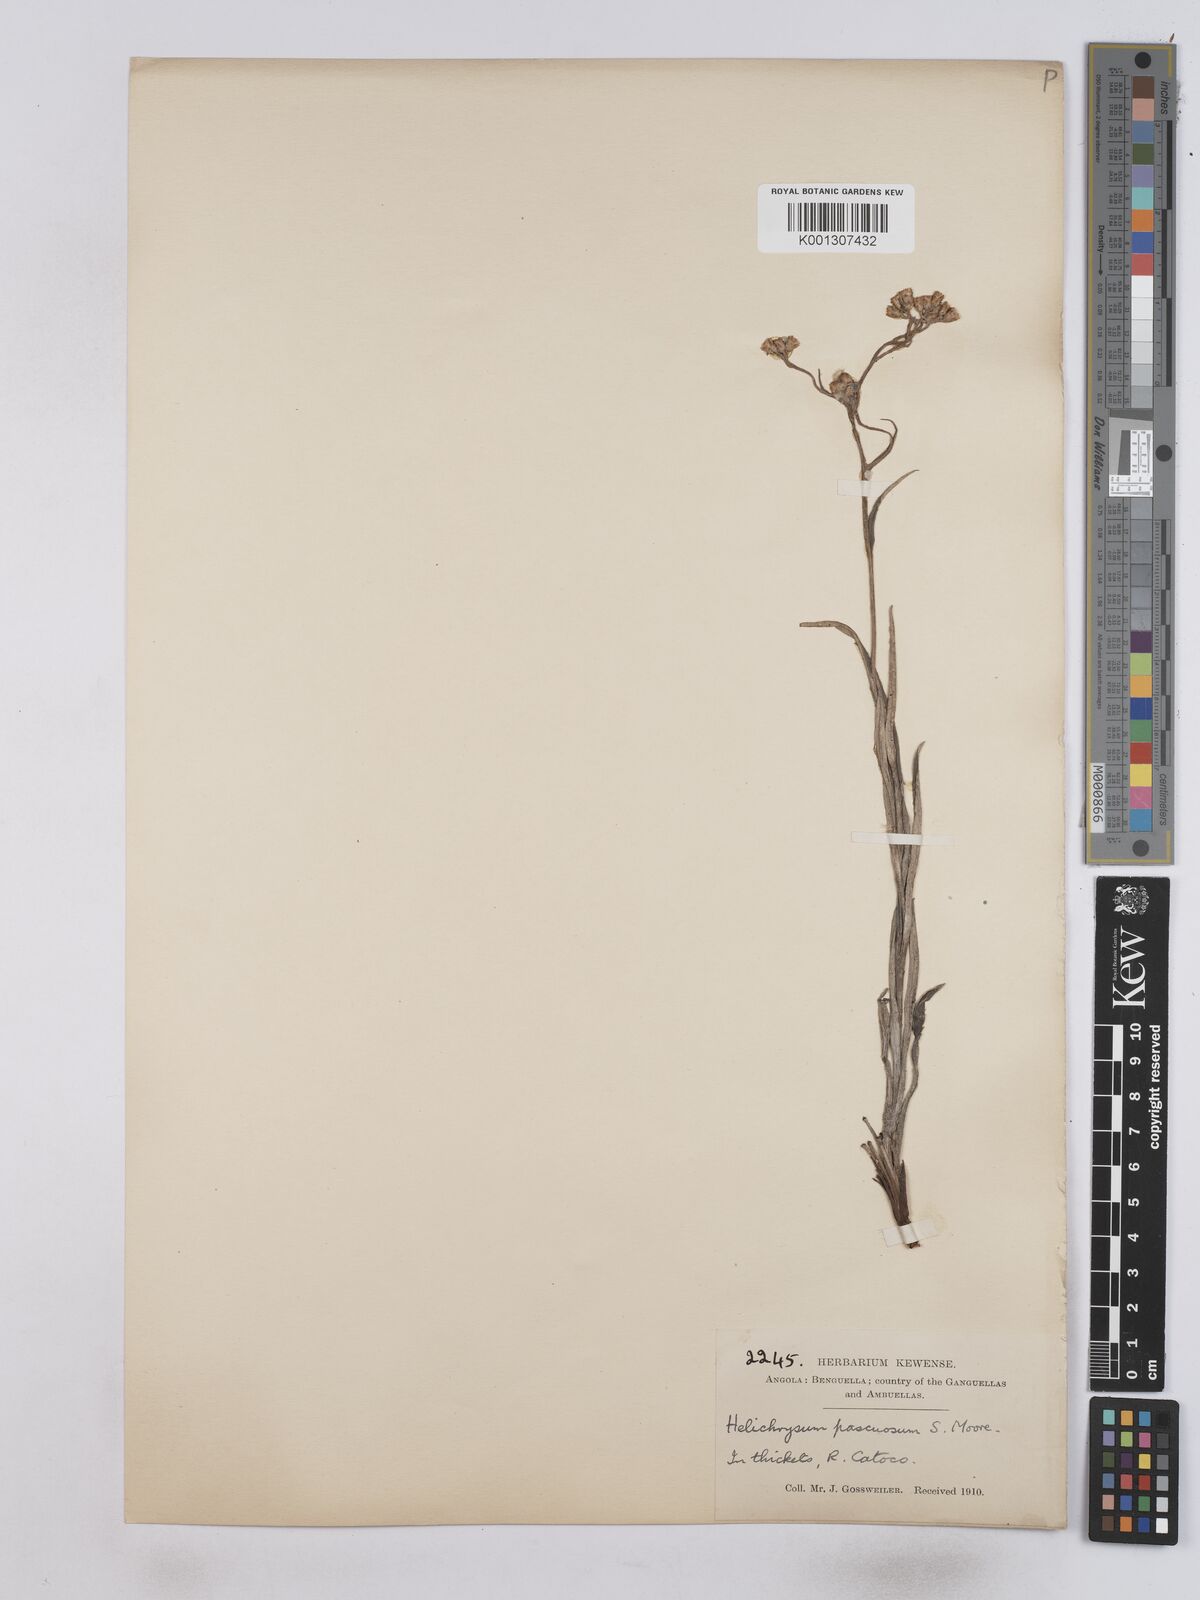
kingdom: Plantae
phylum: Tracheophyta
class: Magnoliopsida
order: Asterales
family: Asteraceae
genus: Helichrysum
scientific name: Helichrysum pascuosum
